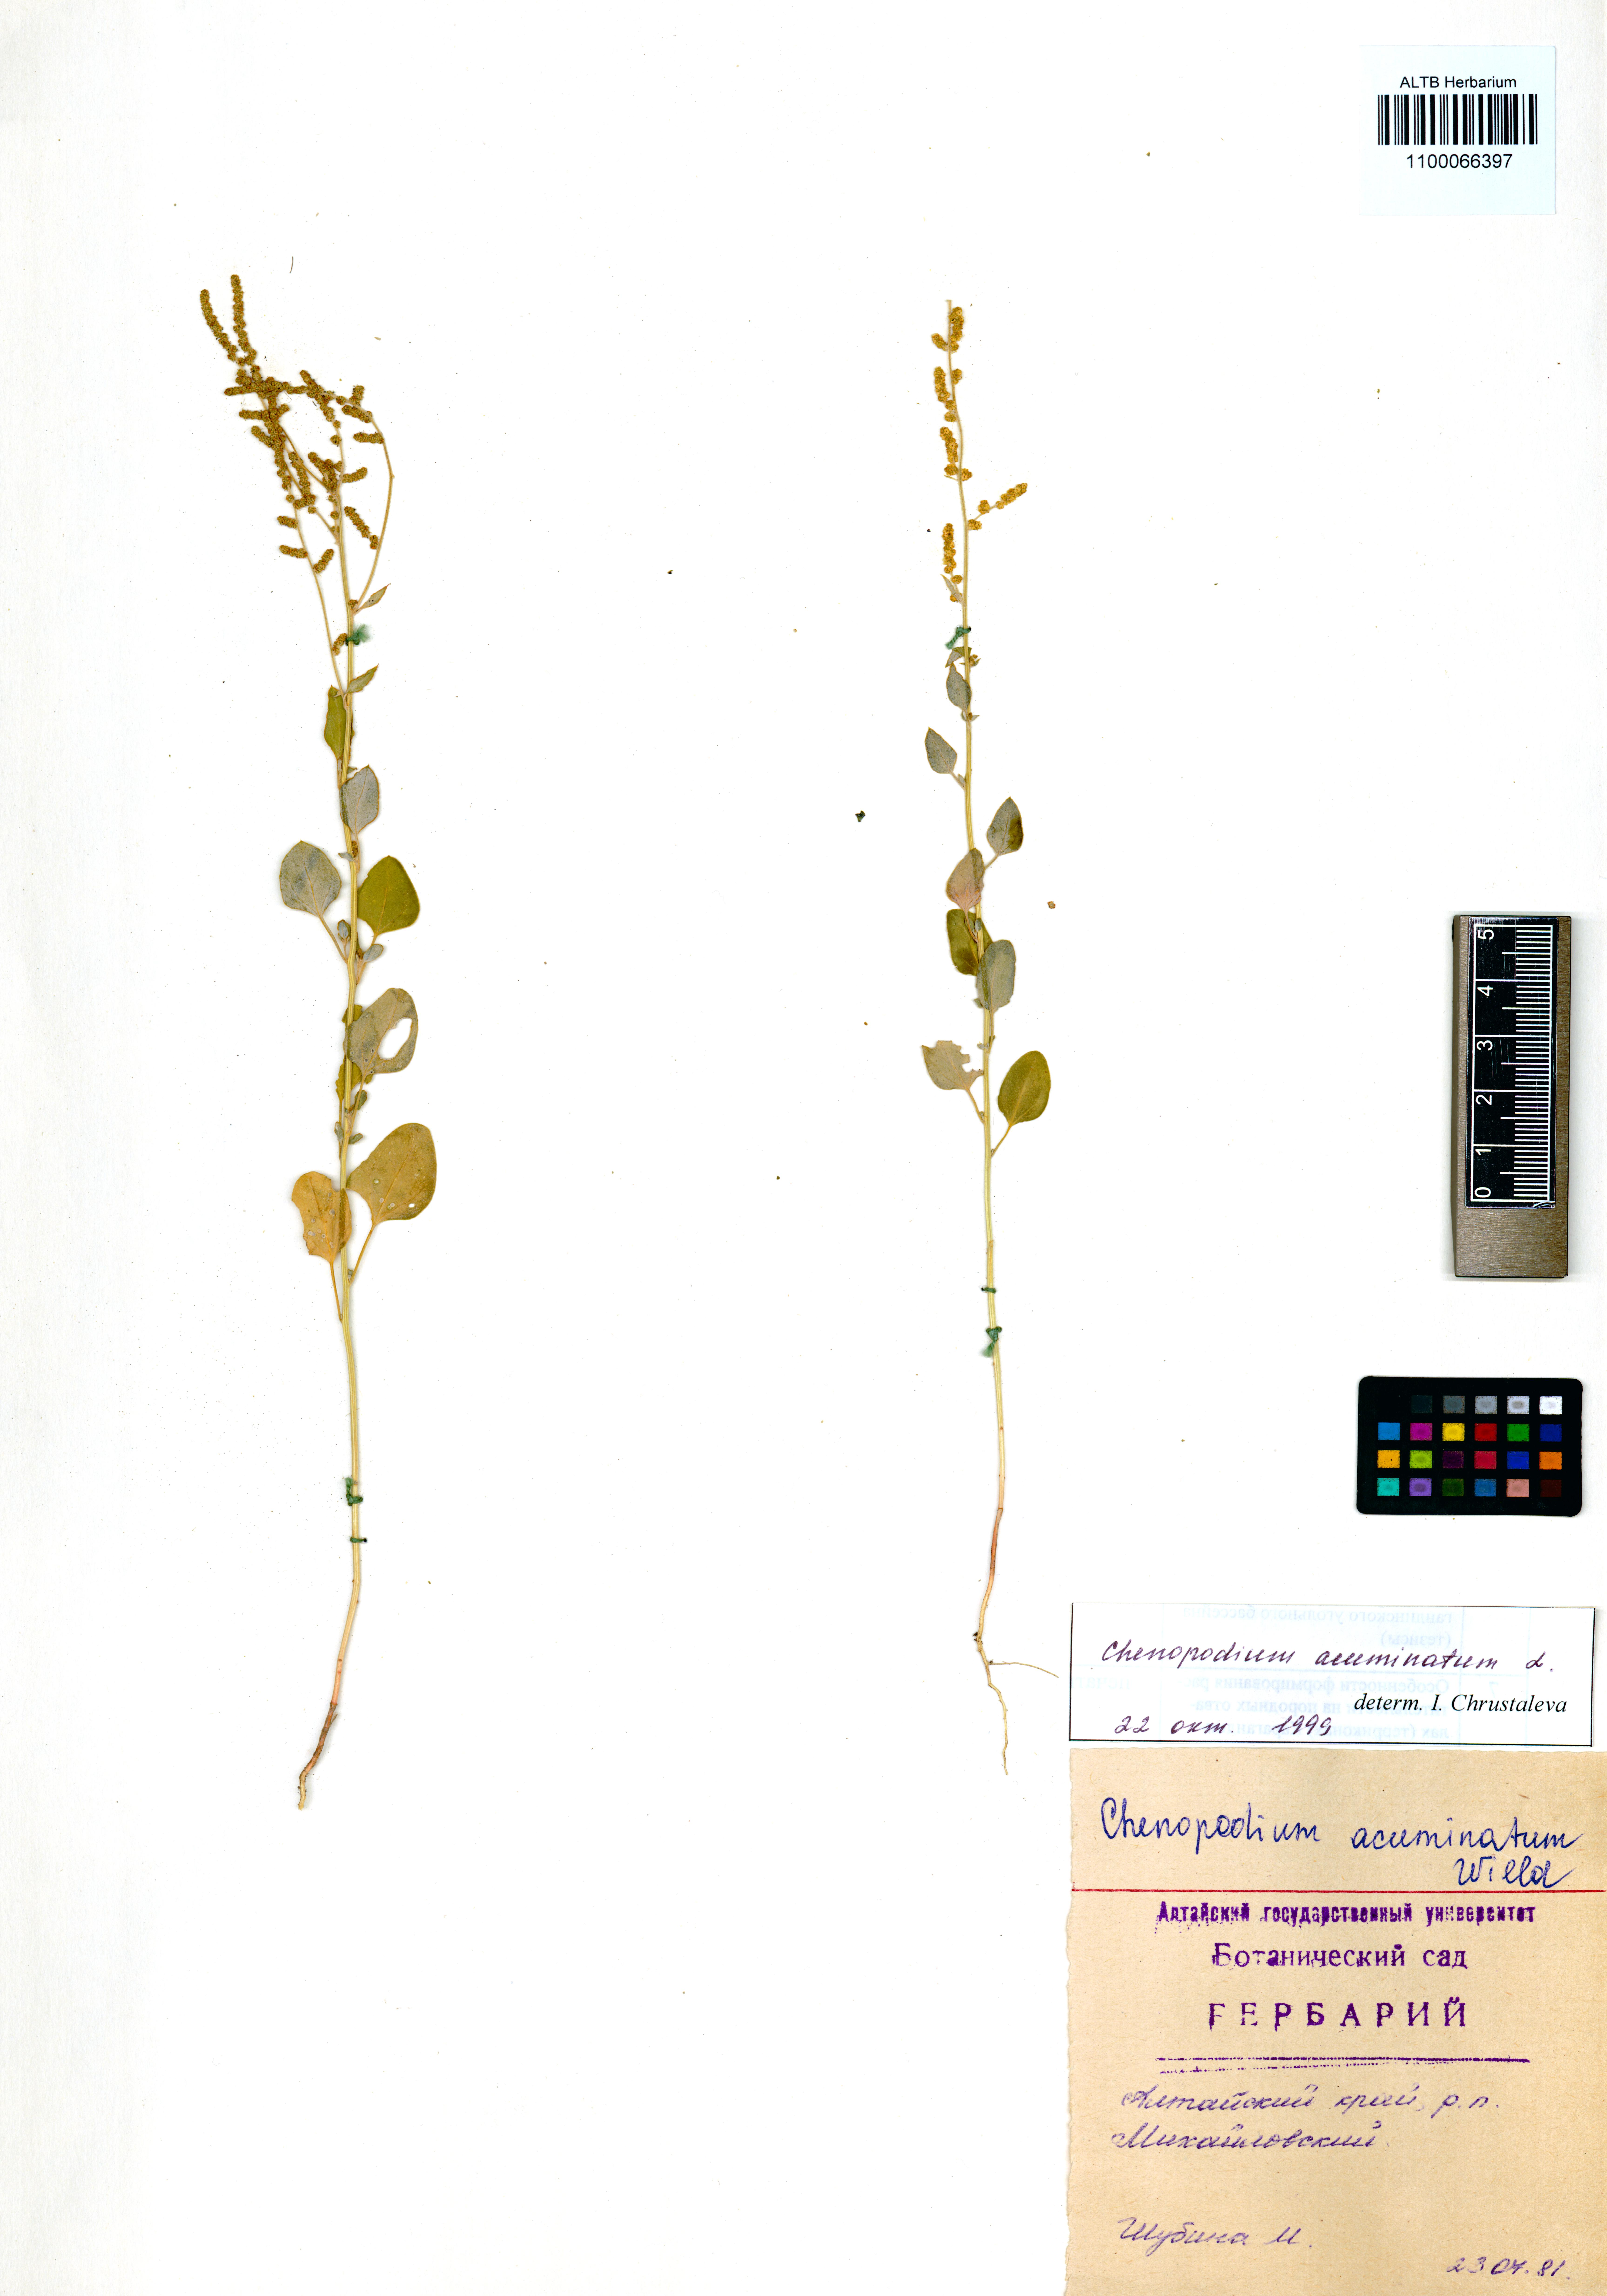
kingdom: Plantae
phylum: Tracheophyta
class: Magnoliopsida
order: Caryophyllales
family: Amaranthaceae
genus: Chenopodium
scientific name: Chenopodium acuminatum
